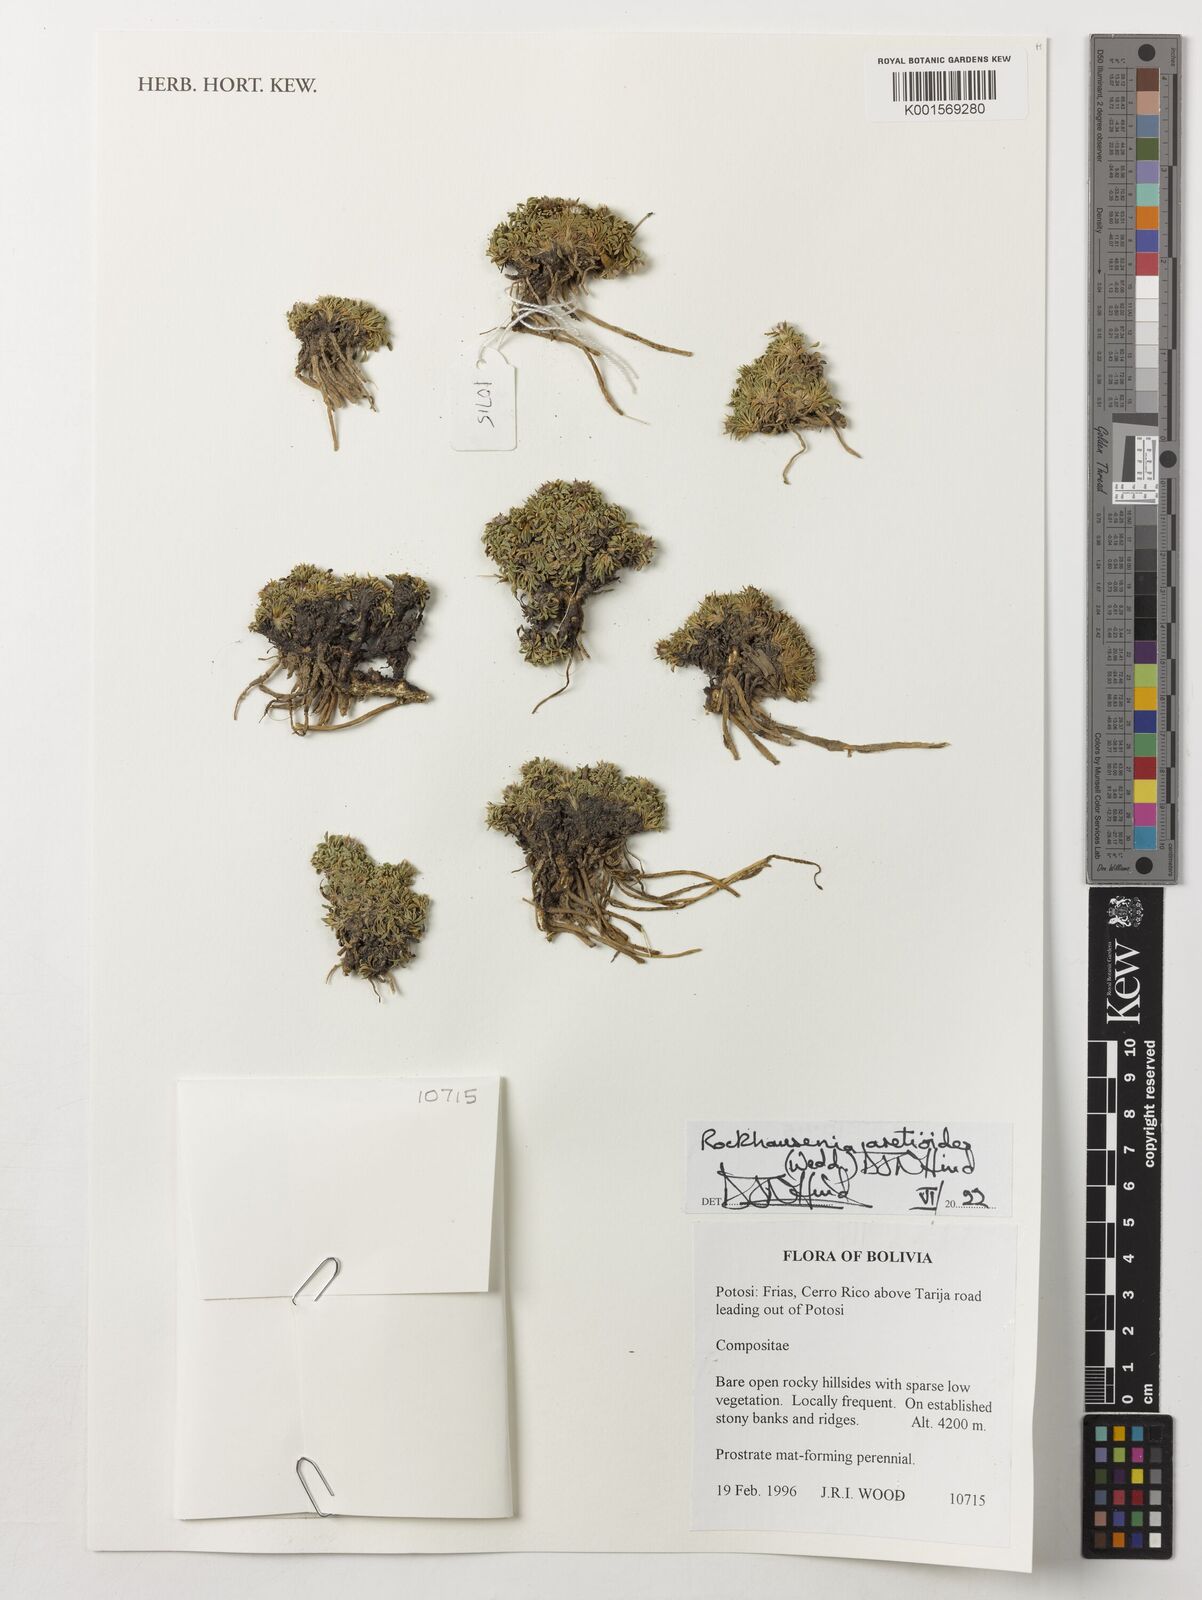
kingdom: Plantae
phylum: Tracheophyta
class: Magnoliopsida
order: Asterales
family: Asteraceae
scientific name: Asteraceae
